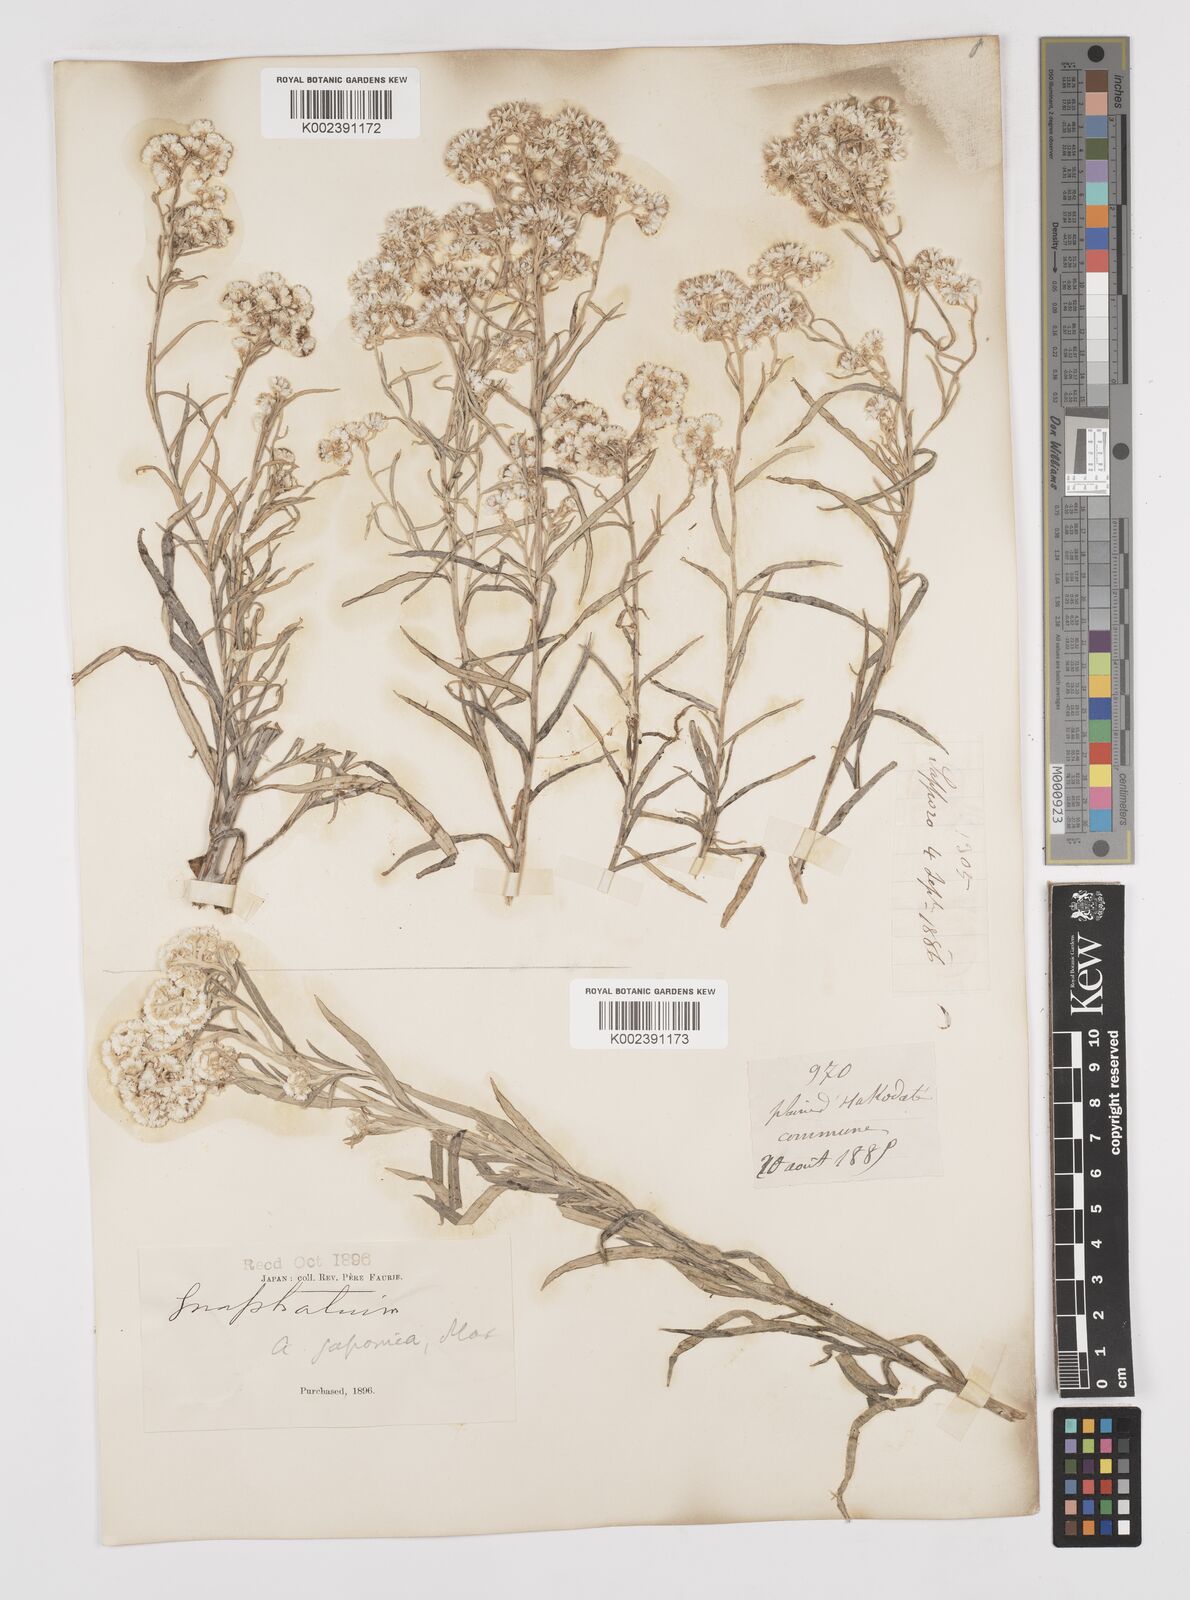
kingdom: Plantae
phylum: Tracheophyta
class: Magnoliopsida
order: Asterales
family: Asteraceae
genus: Anaphalis
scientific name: Anaphalis margaritacea
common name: Pearly everlasting
